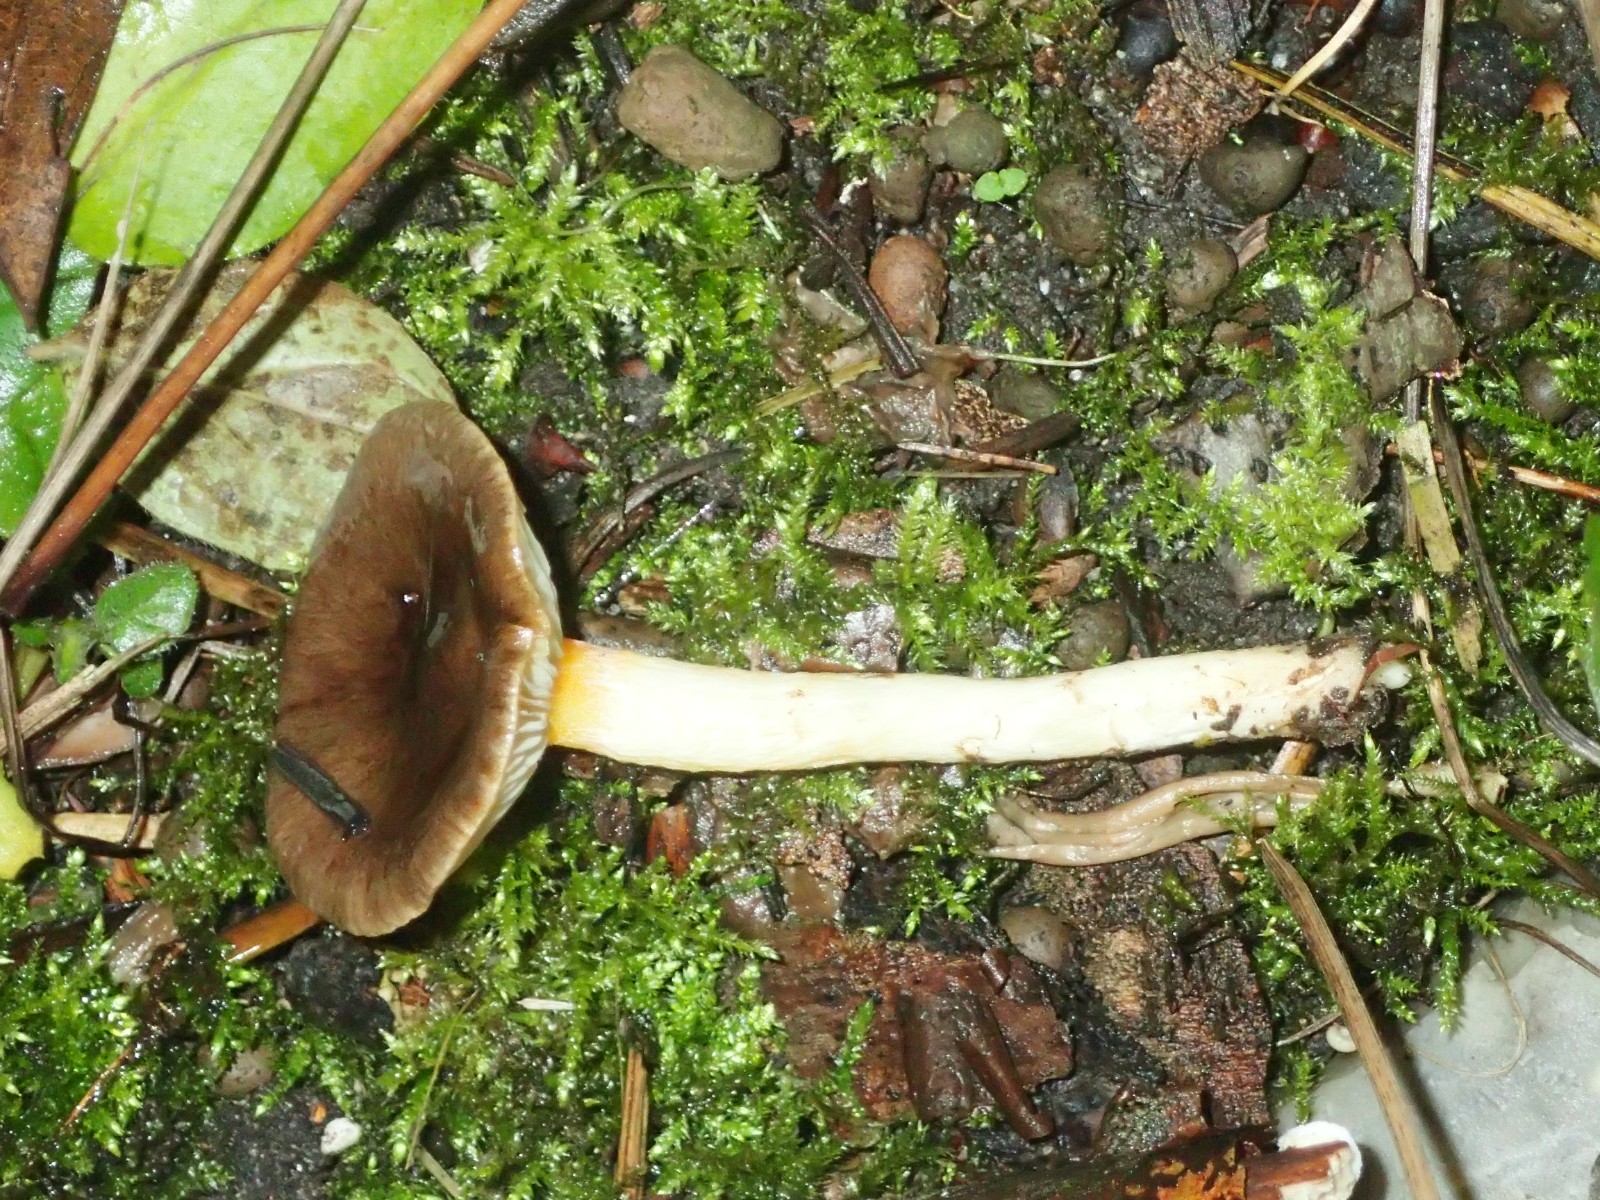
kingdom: Fungi
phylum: Basidiomycota
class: Agaricomycetes
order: Agaricales
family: Hygrophoraceae
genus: Hygrophorus
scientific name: Hygrophorus hypothejus
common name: frost-sneglehat
